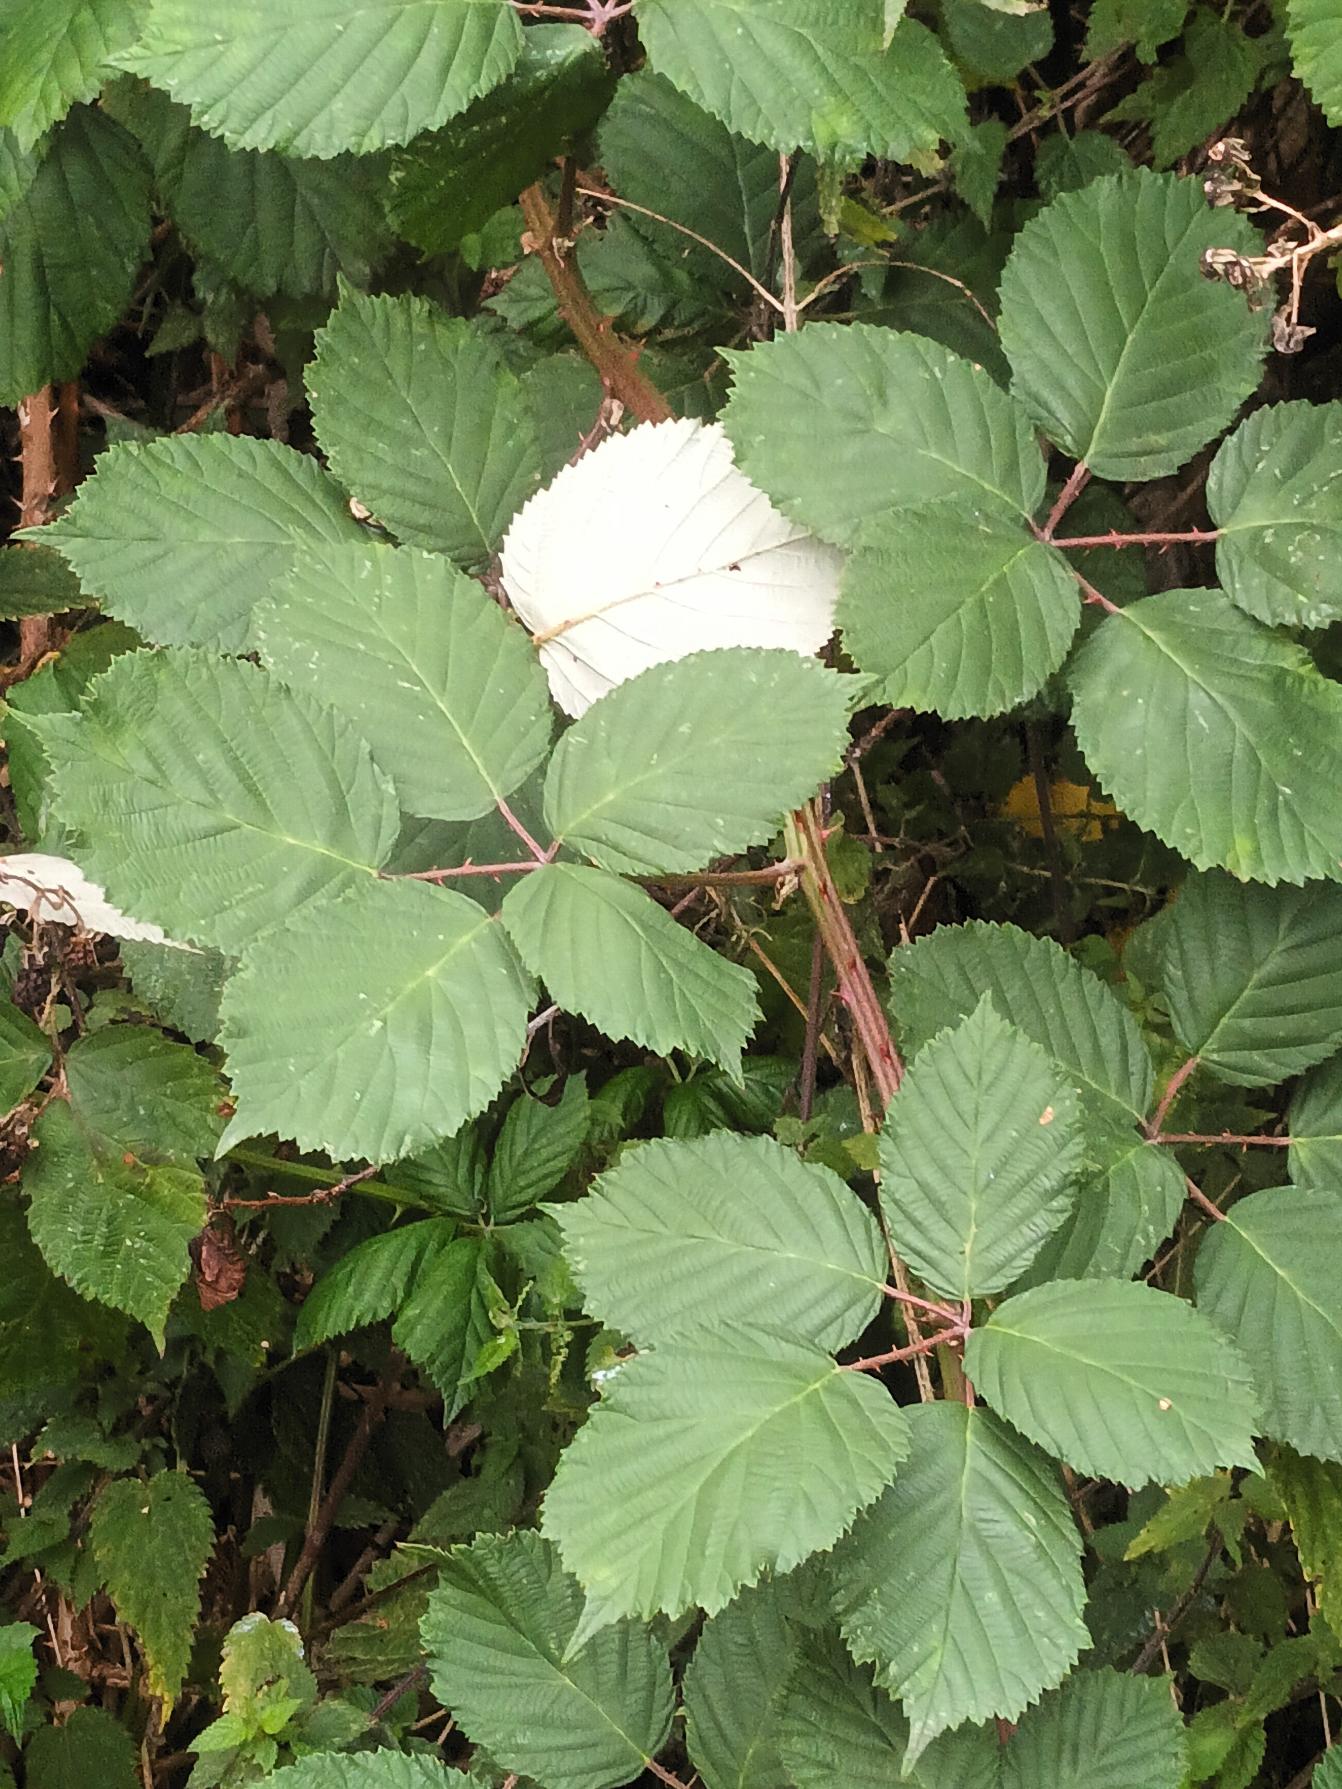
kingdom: Plantae
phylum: Tracheophyta
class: Magnoliopsida
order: Rosales
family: Rosaceae
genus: Rubus
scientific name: Rubus armeniacus
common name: Armensk brombær
